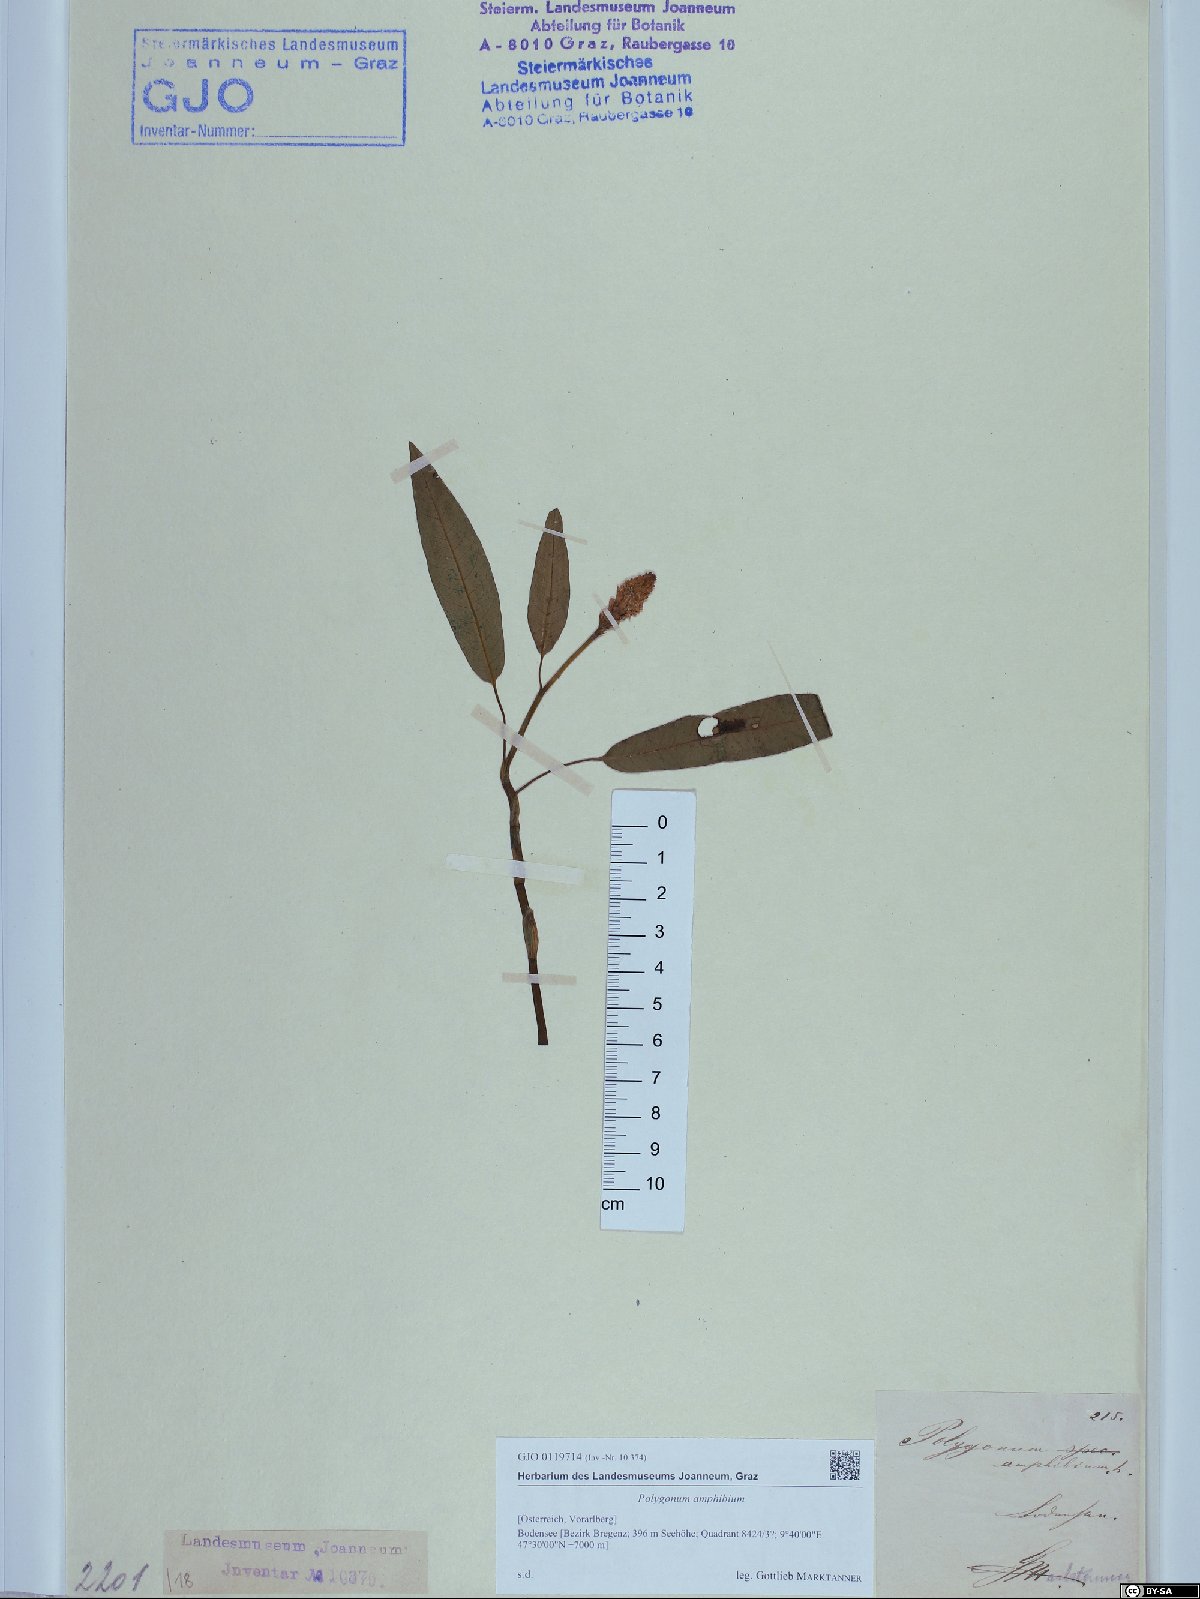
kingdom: Plantae
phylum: Tracheophyta
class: Magnoliopsida
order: Caryophyllales
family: Polygonaceae
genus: Persicaria
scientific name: Persicaria amphibia
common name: Amphibious bistort
